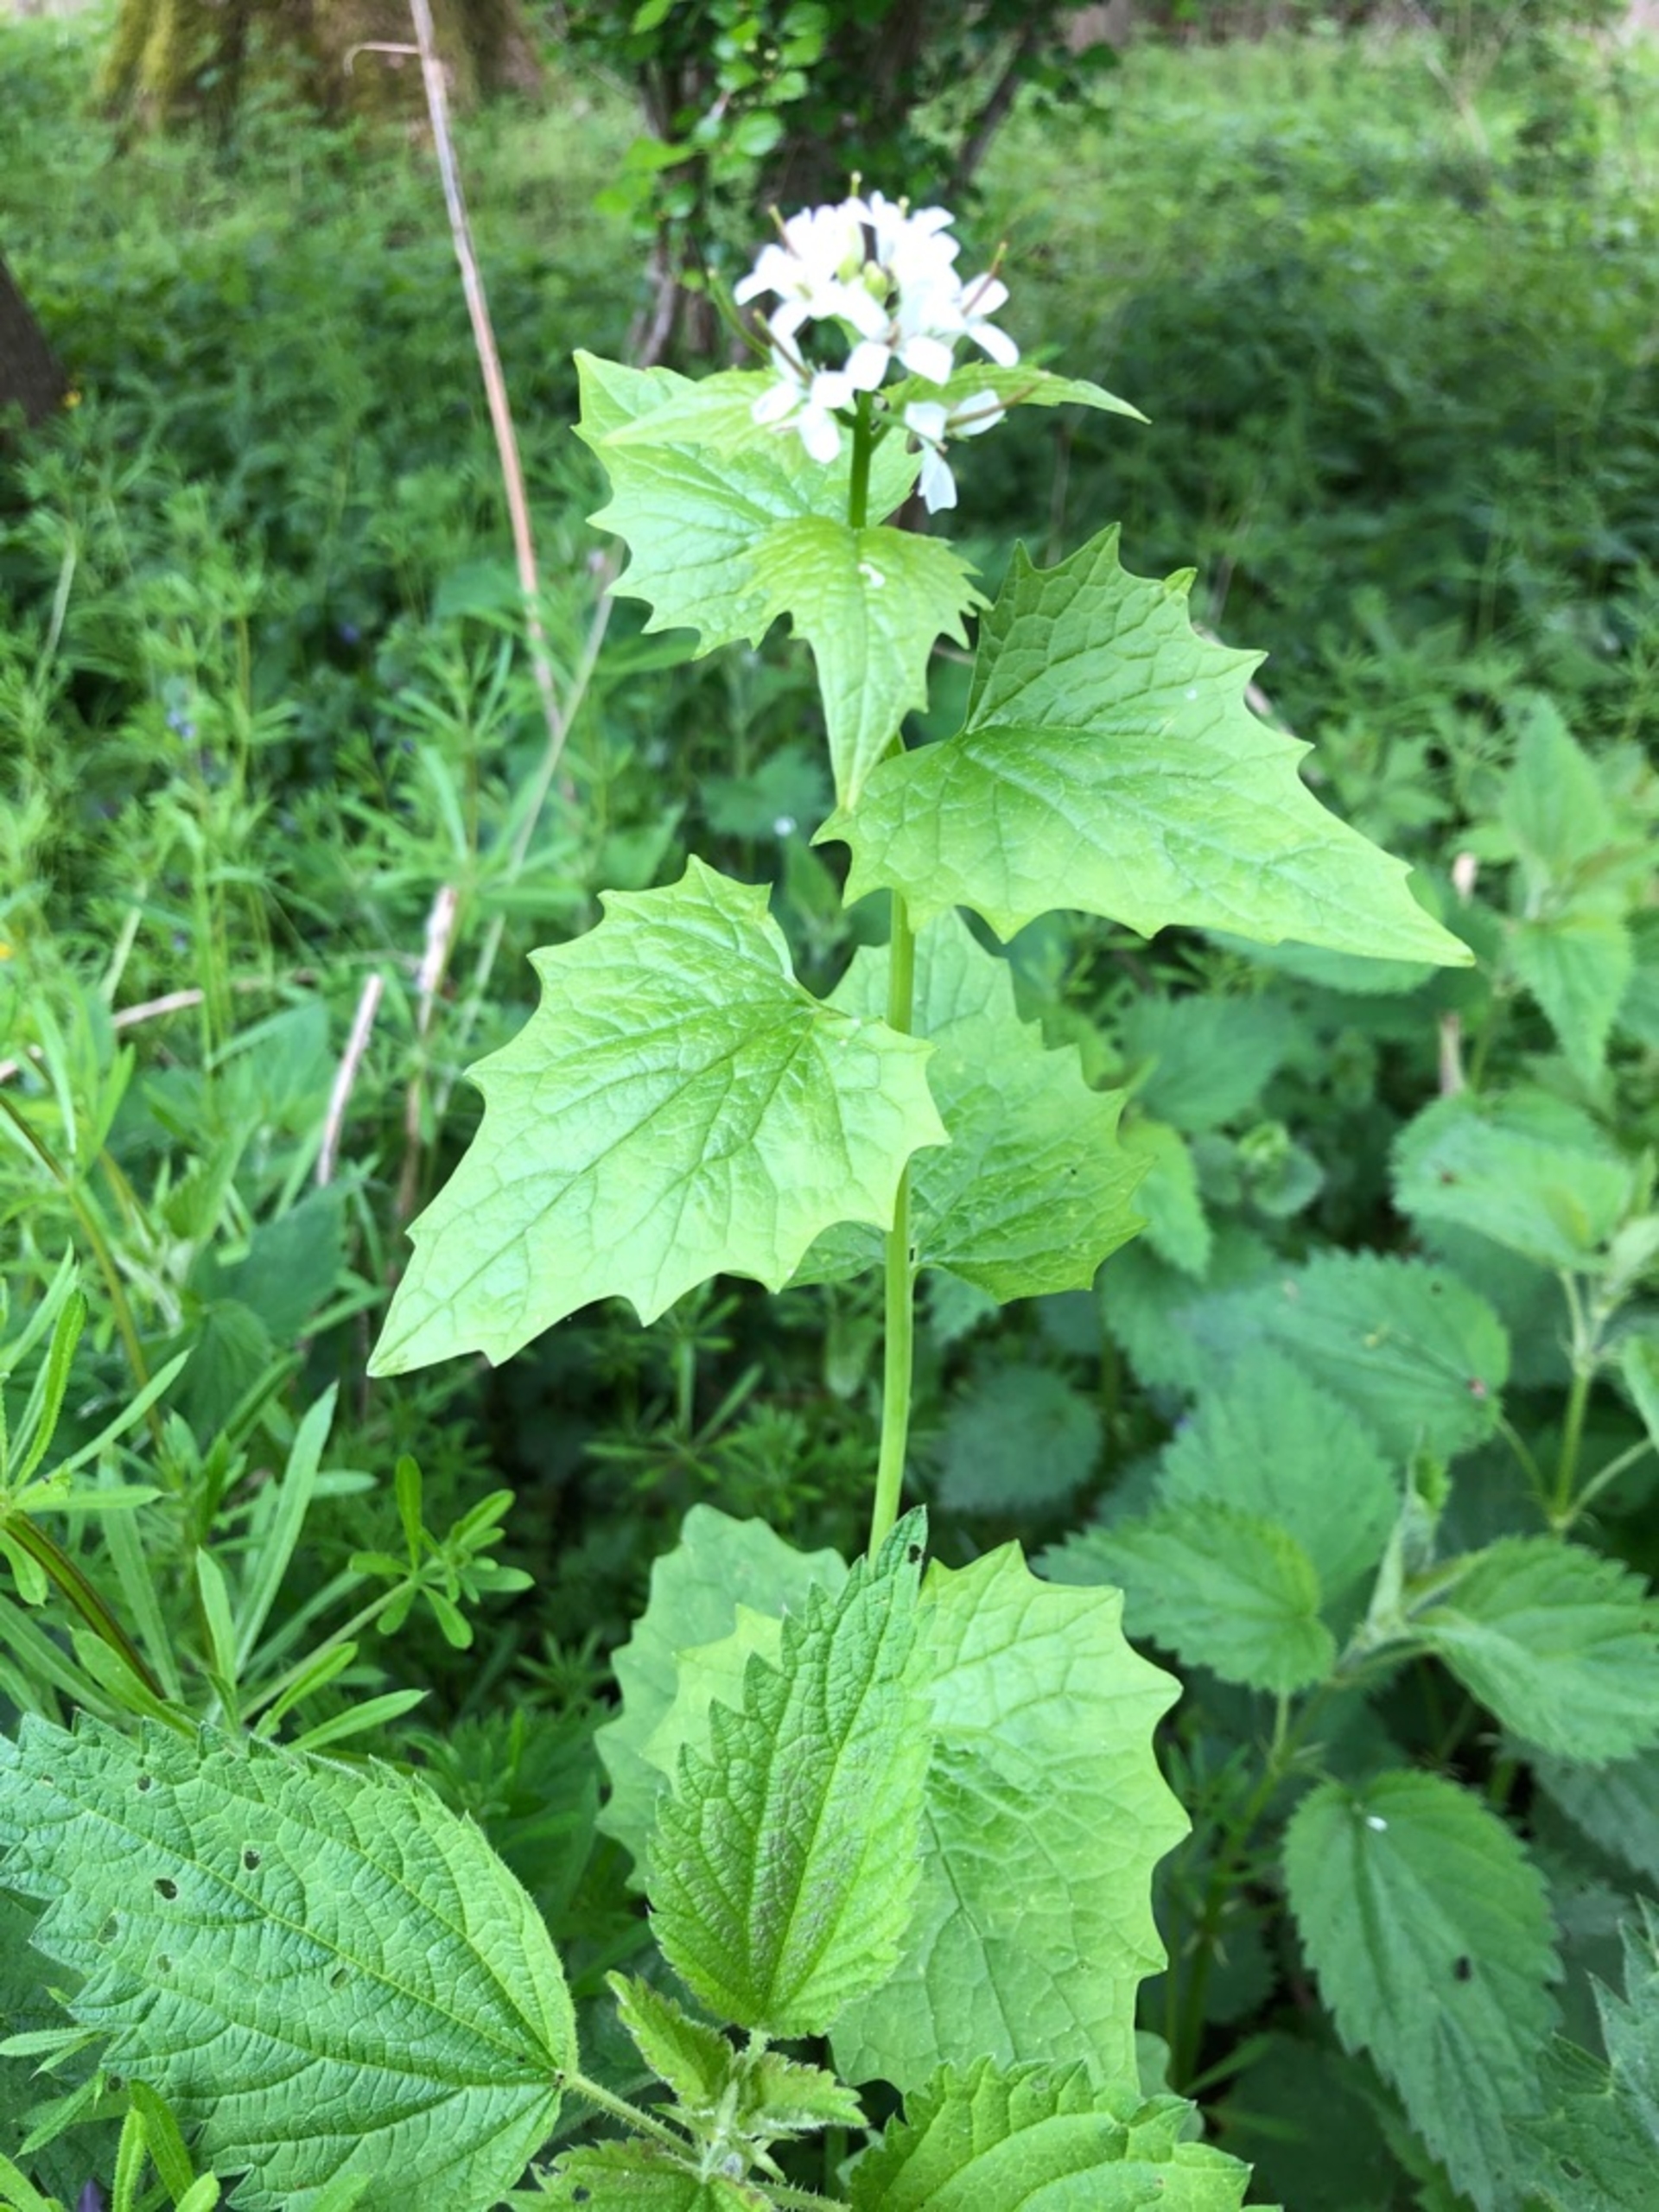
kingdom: Plantae
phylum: Tracheophyta
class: Magnoliopsida
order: Brassicales
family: Brassicaceae
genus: Alliaria
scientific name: Alliaria petiolata
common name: Løgkarse
